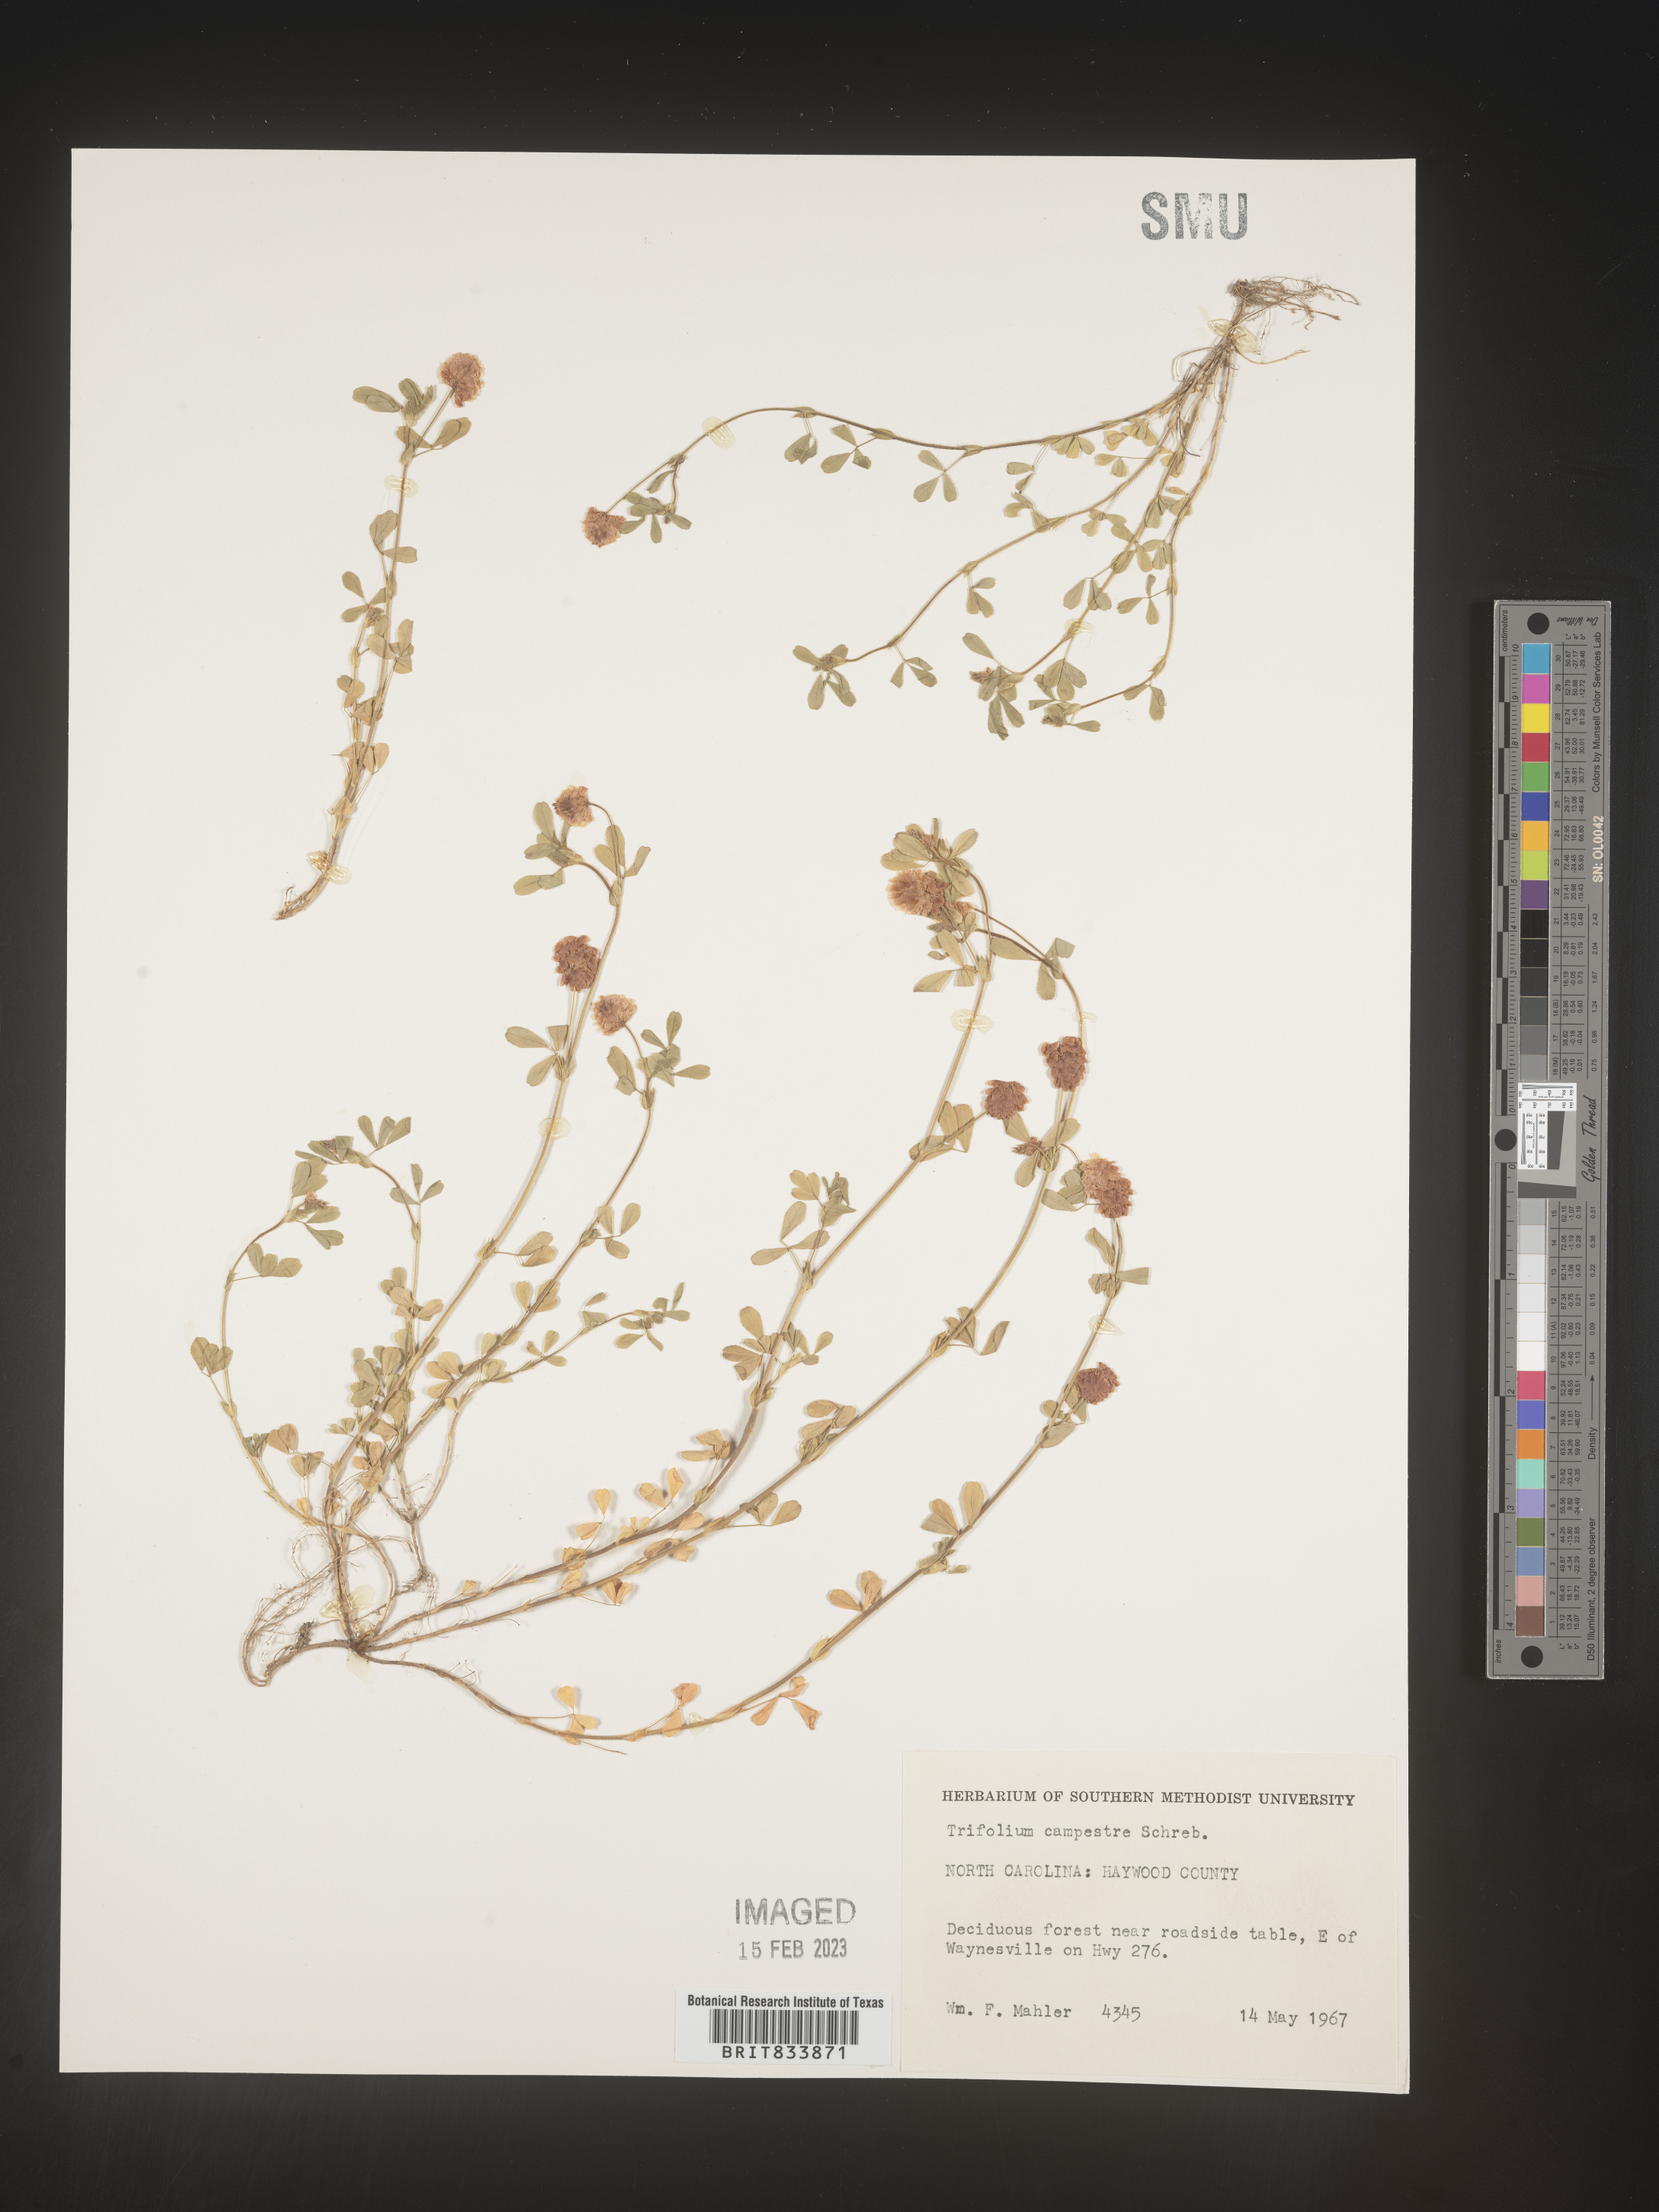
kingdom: Plantae
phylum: Tracheophyta
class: Magnoliopsida
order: Fabales
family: Fabaceae
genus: Trifolium
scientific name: Trifolium campestre
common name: Field clover
